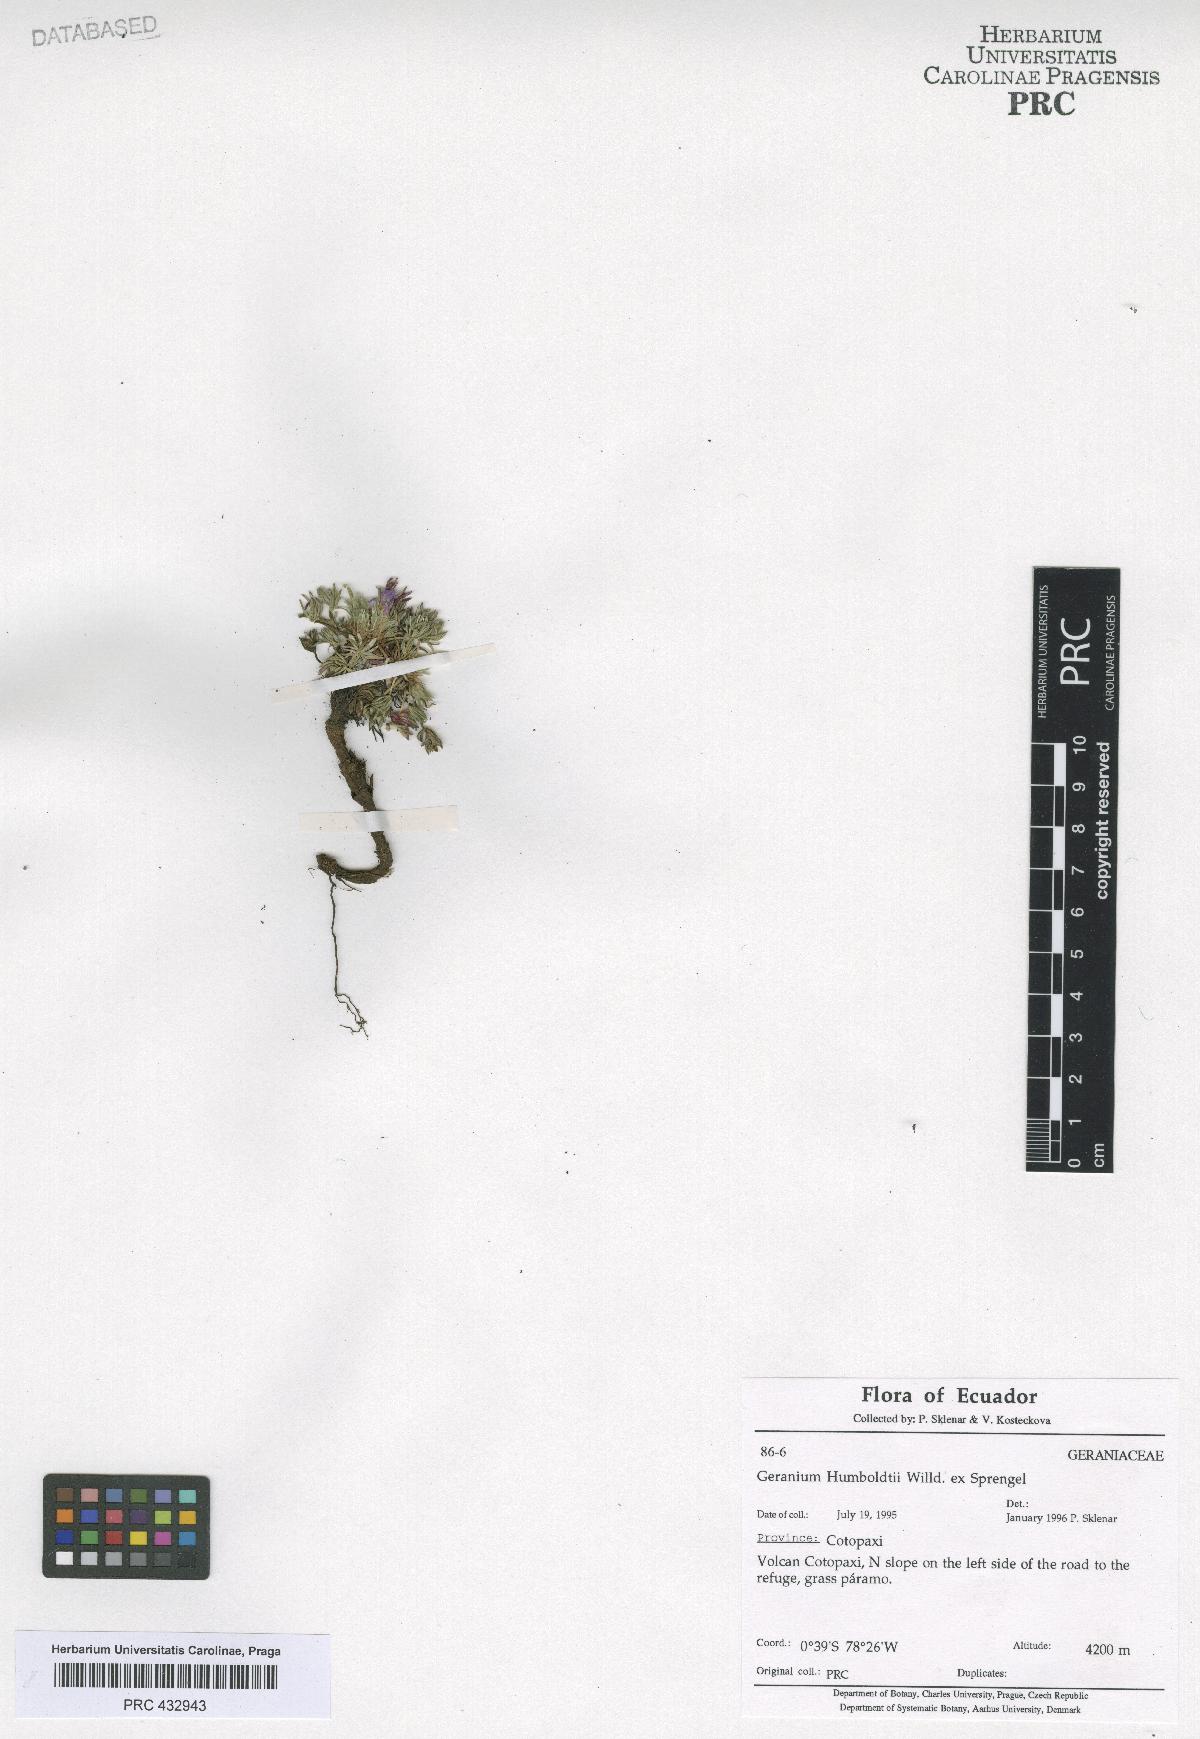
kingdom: Plantae
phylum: Tracheophyta
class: Magnoliopsida
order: Geraniales
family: Geraniaceae
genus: Geranium
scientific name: Geranium humboldtii
